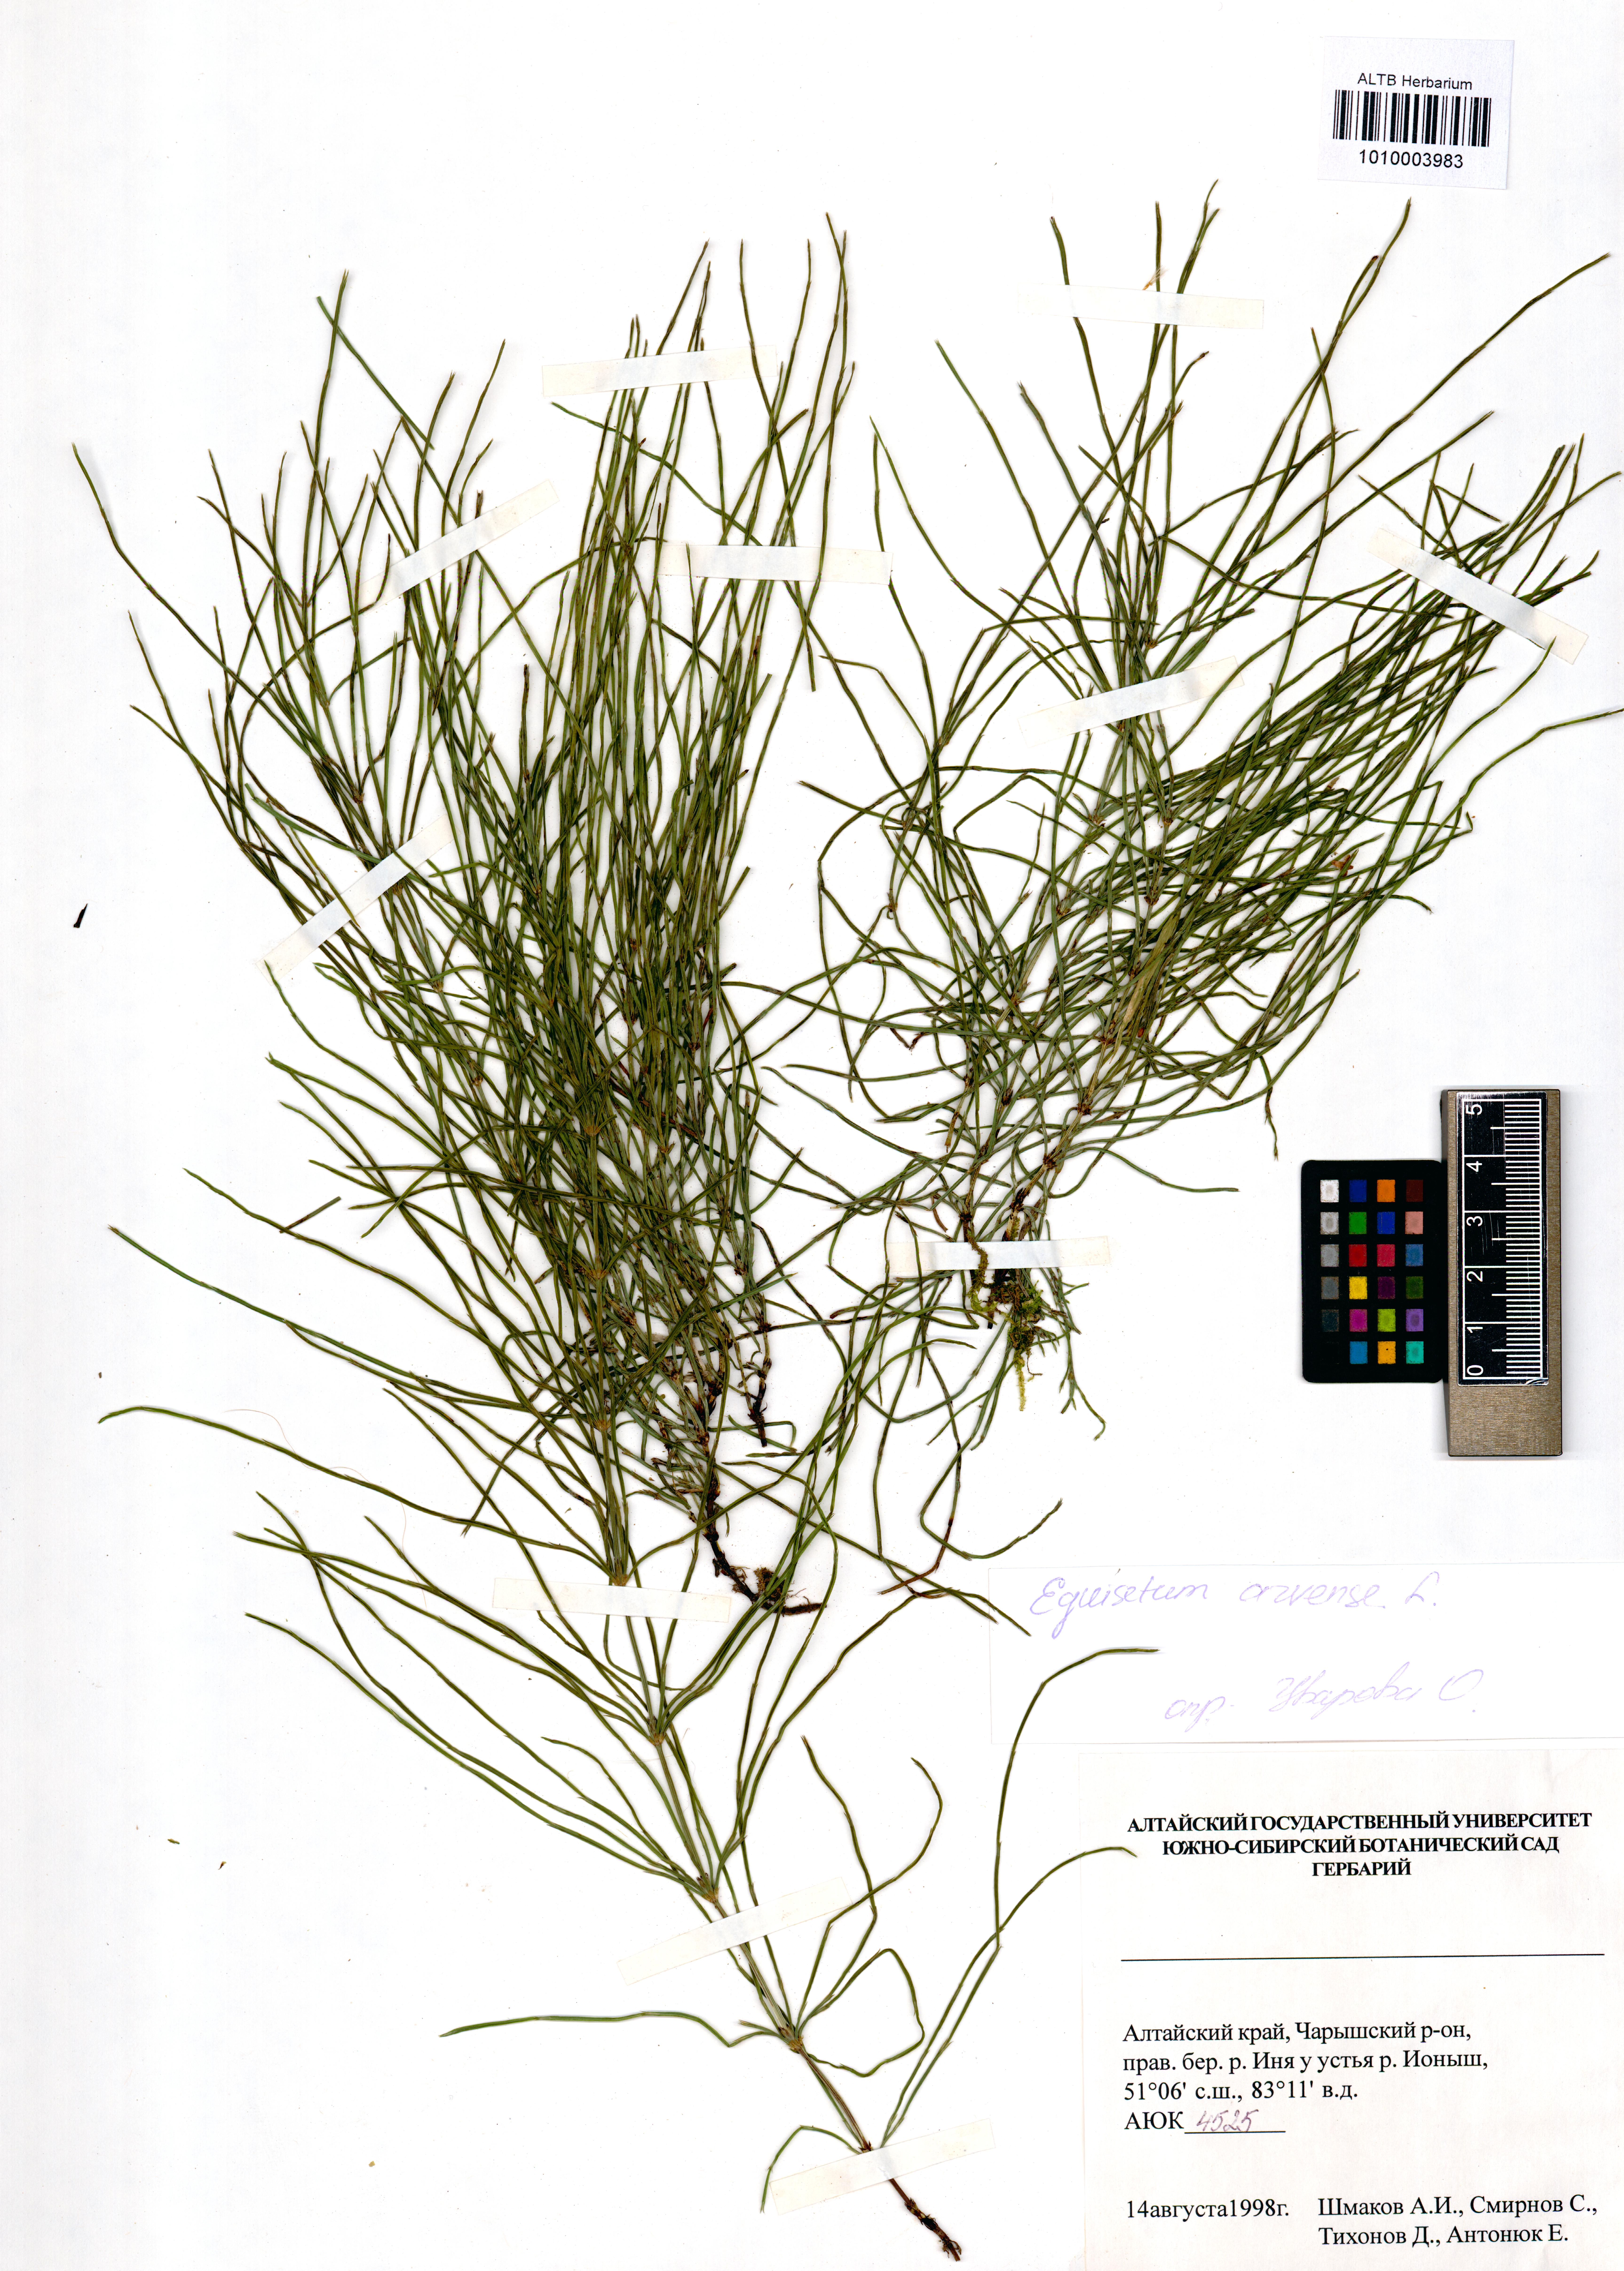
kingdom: Plantae
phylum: Tracheophyta
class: Polypodiopsida
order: Equisetales
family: Equisetaceae
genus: Equisetum
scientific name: Equisetum arvense
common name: Field horsetail
